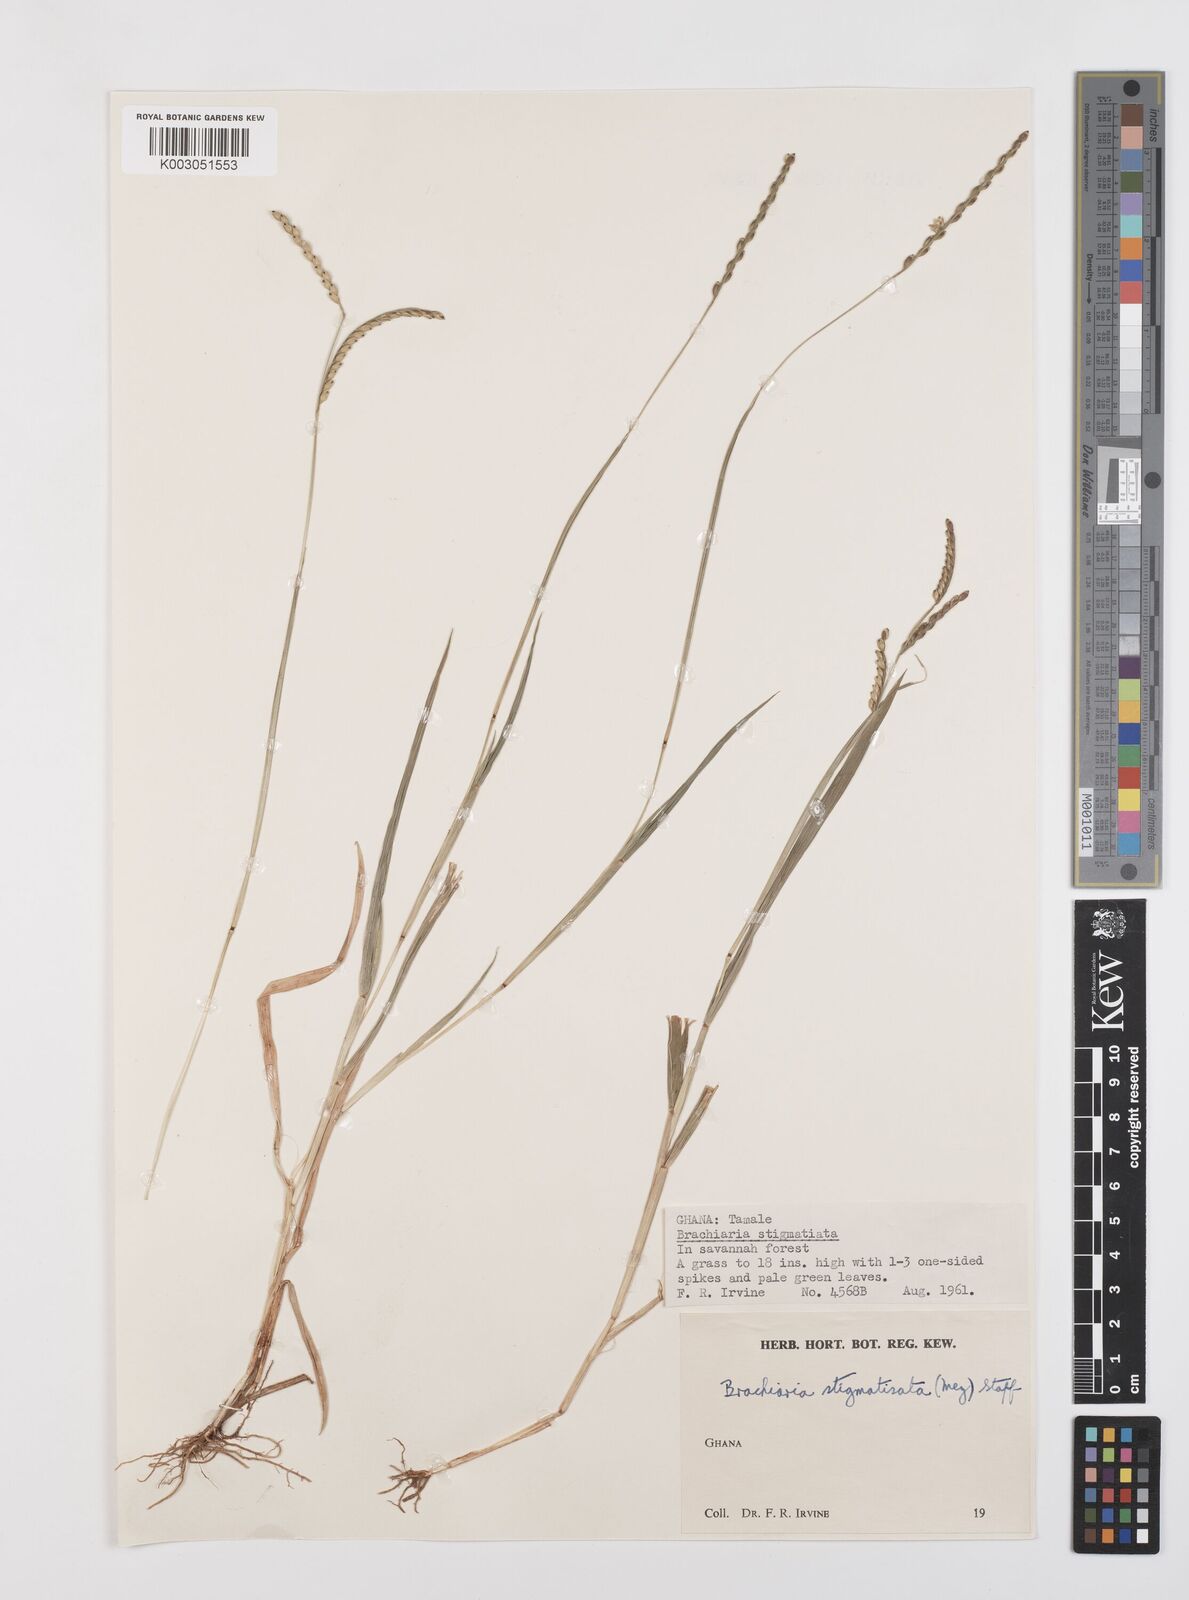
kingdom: Plantae
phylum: Tracheophyta
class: Liliopsida
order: Poales
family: Poaceae
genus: Urochloa
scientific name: Urochloa stigmatisata
